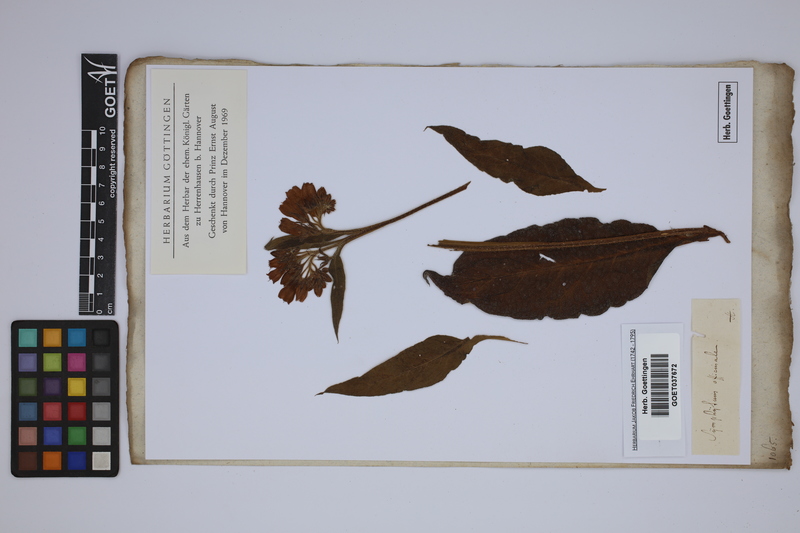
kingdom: Plantae
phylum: Tracheophyta
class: Magnoliopsida
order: Boraginales
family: Boraginaceae
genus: Symphytum
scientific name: Symphytum officinale
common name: Common comfrey
